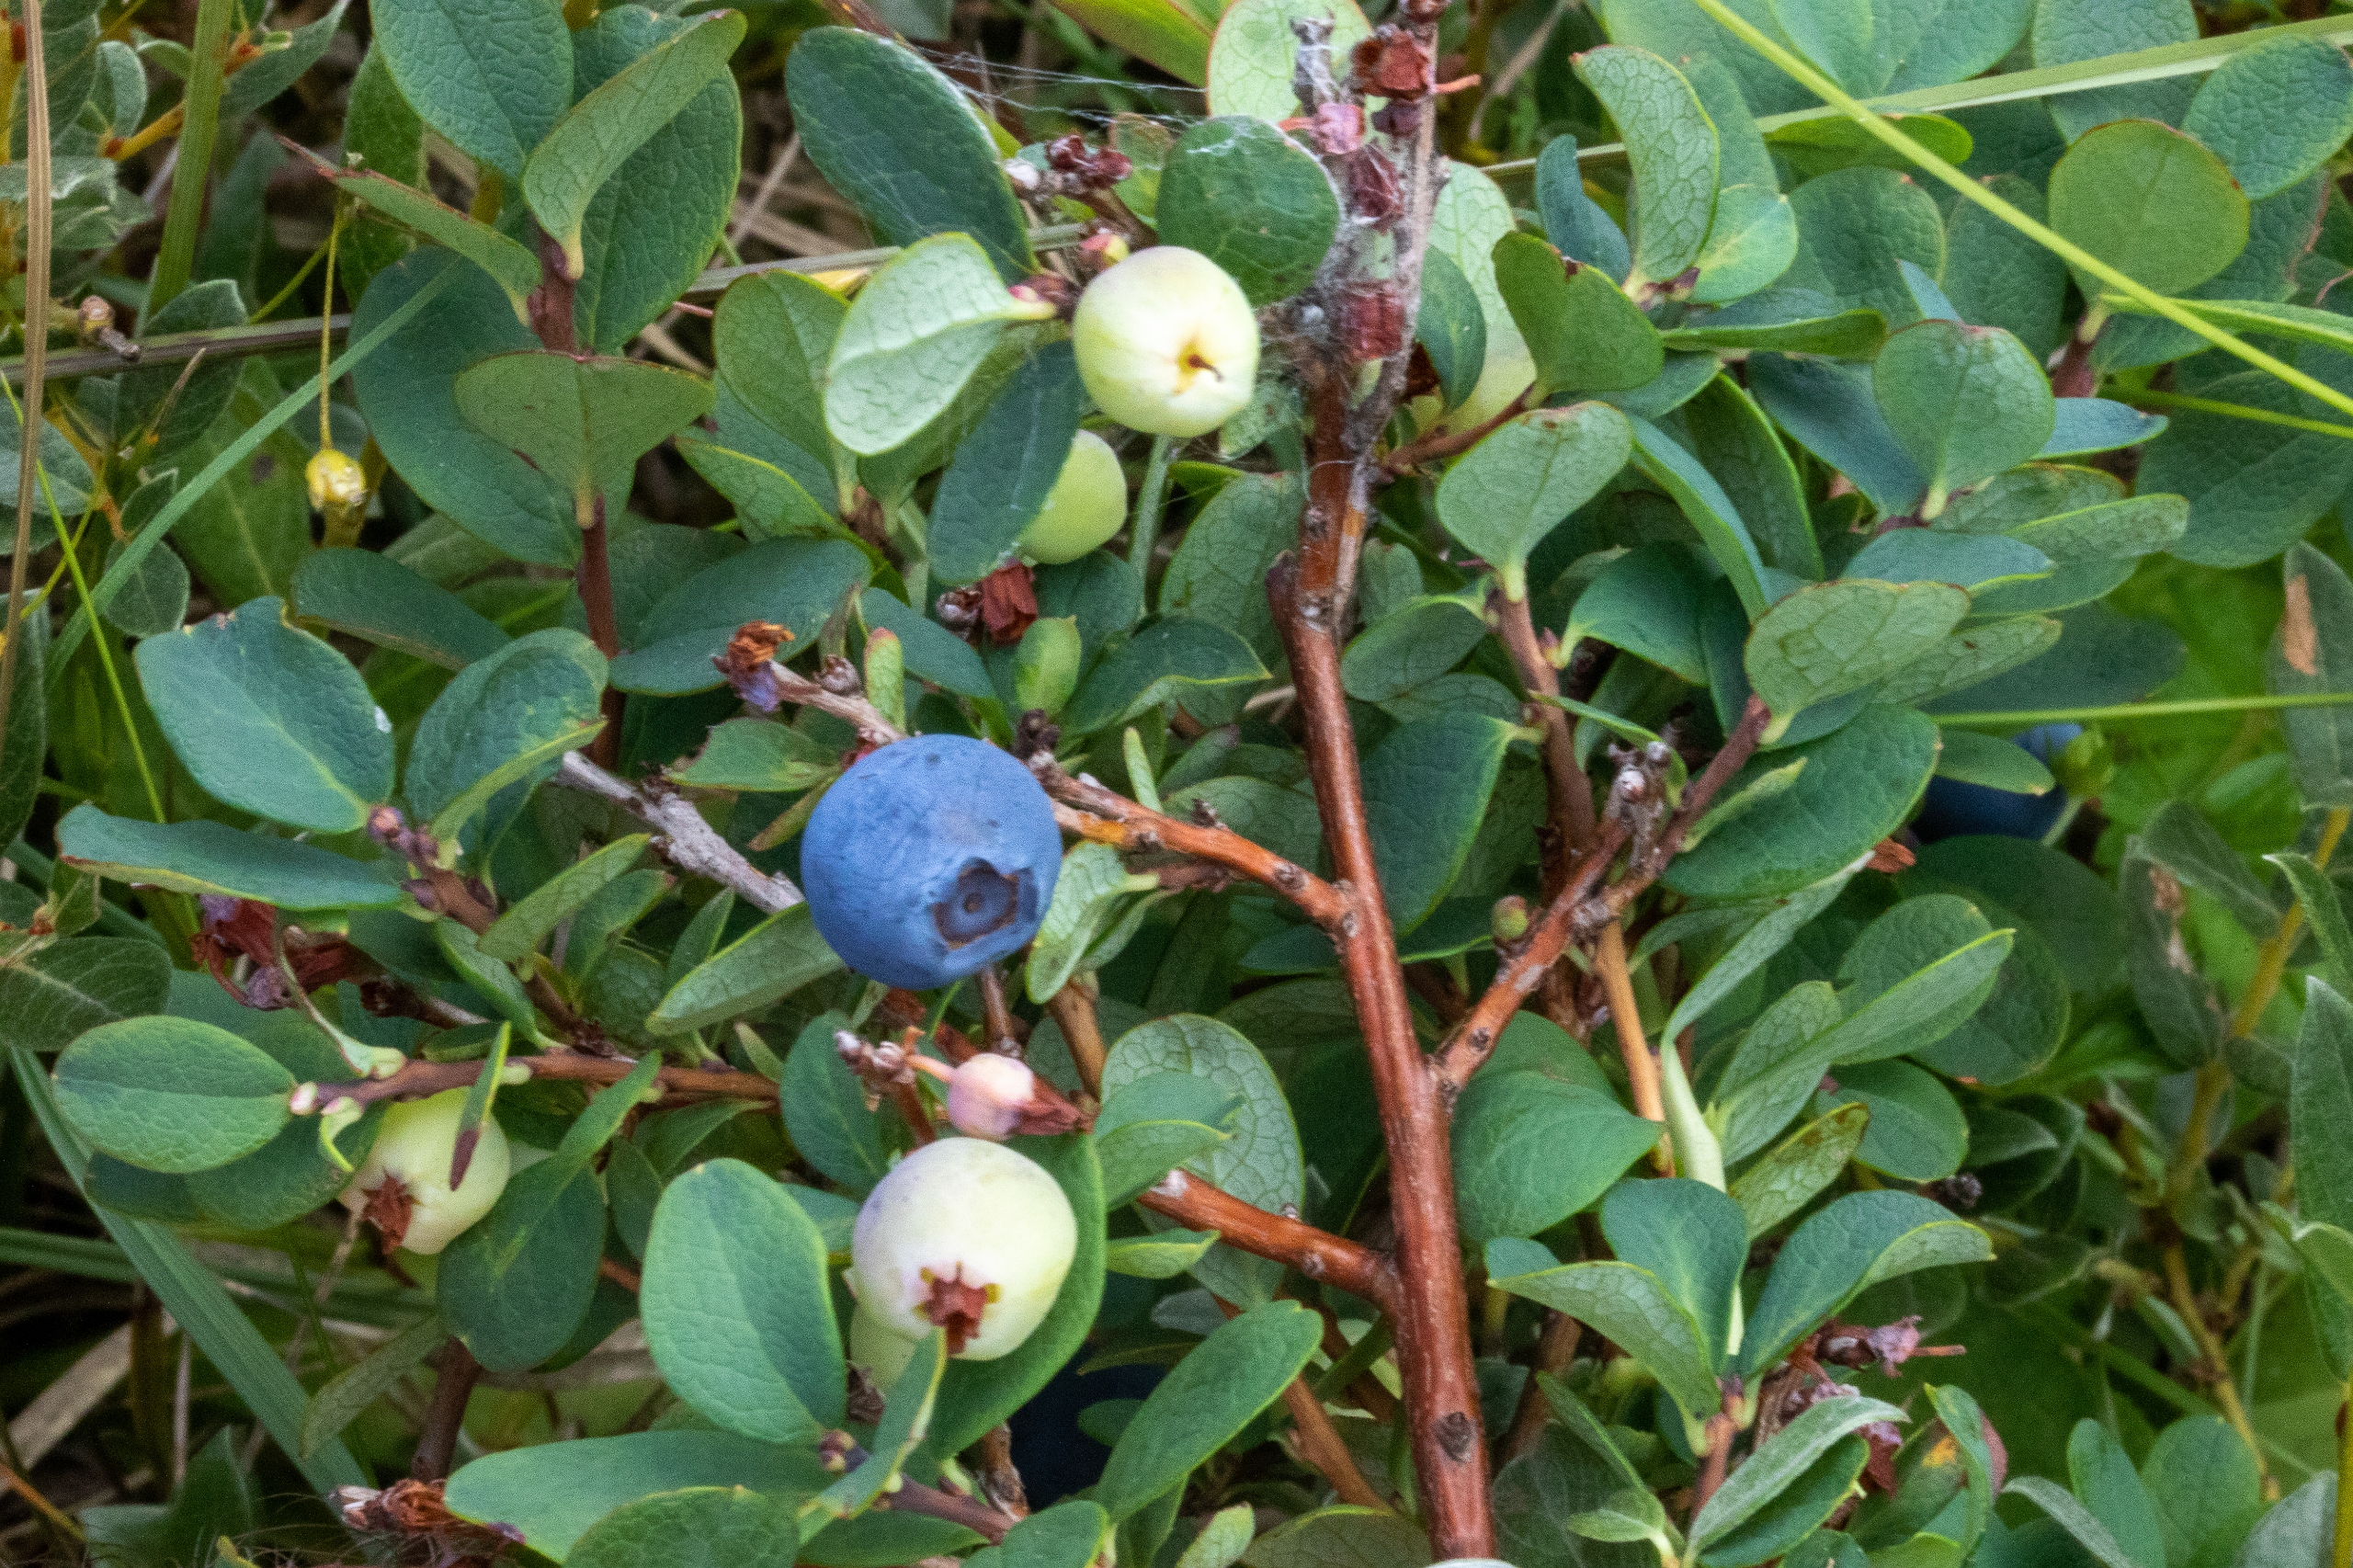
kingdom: Plantae
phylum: Tracheophyta
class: Magnoliopsida
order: Ericales
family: Ericaceae
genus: Vaccinium
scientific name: Vaccinium uliginosum
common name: Mose-bølle
